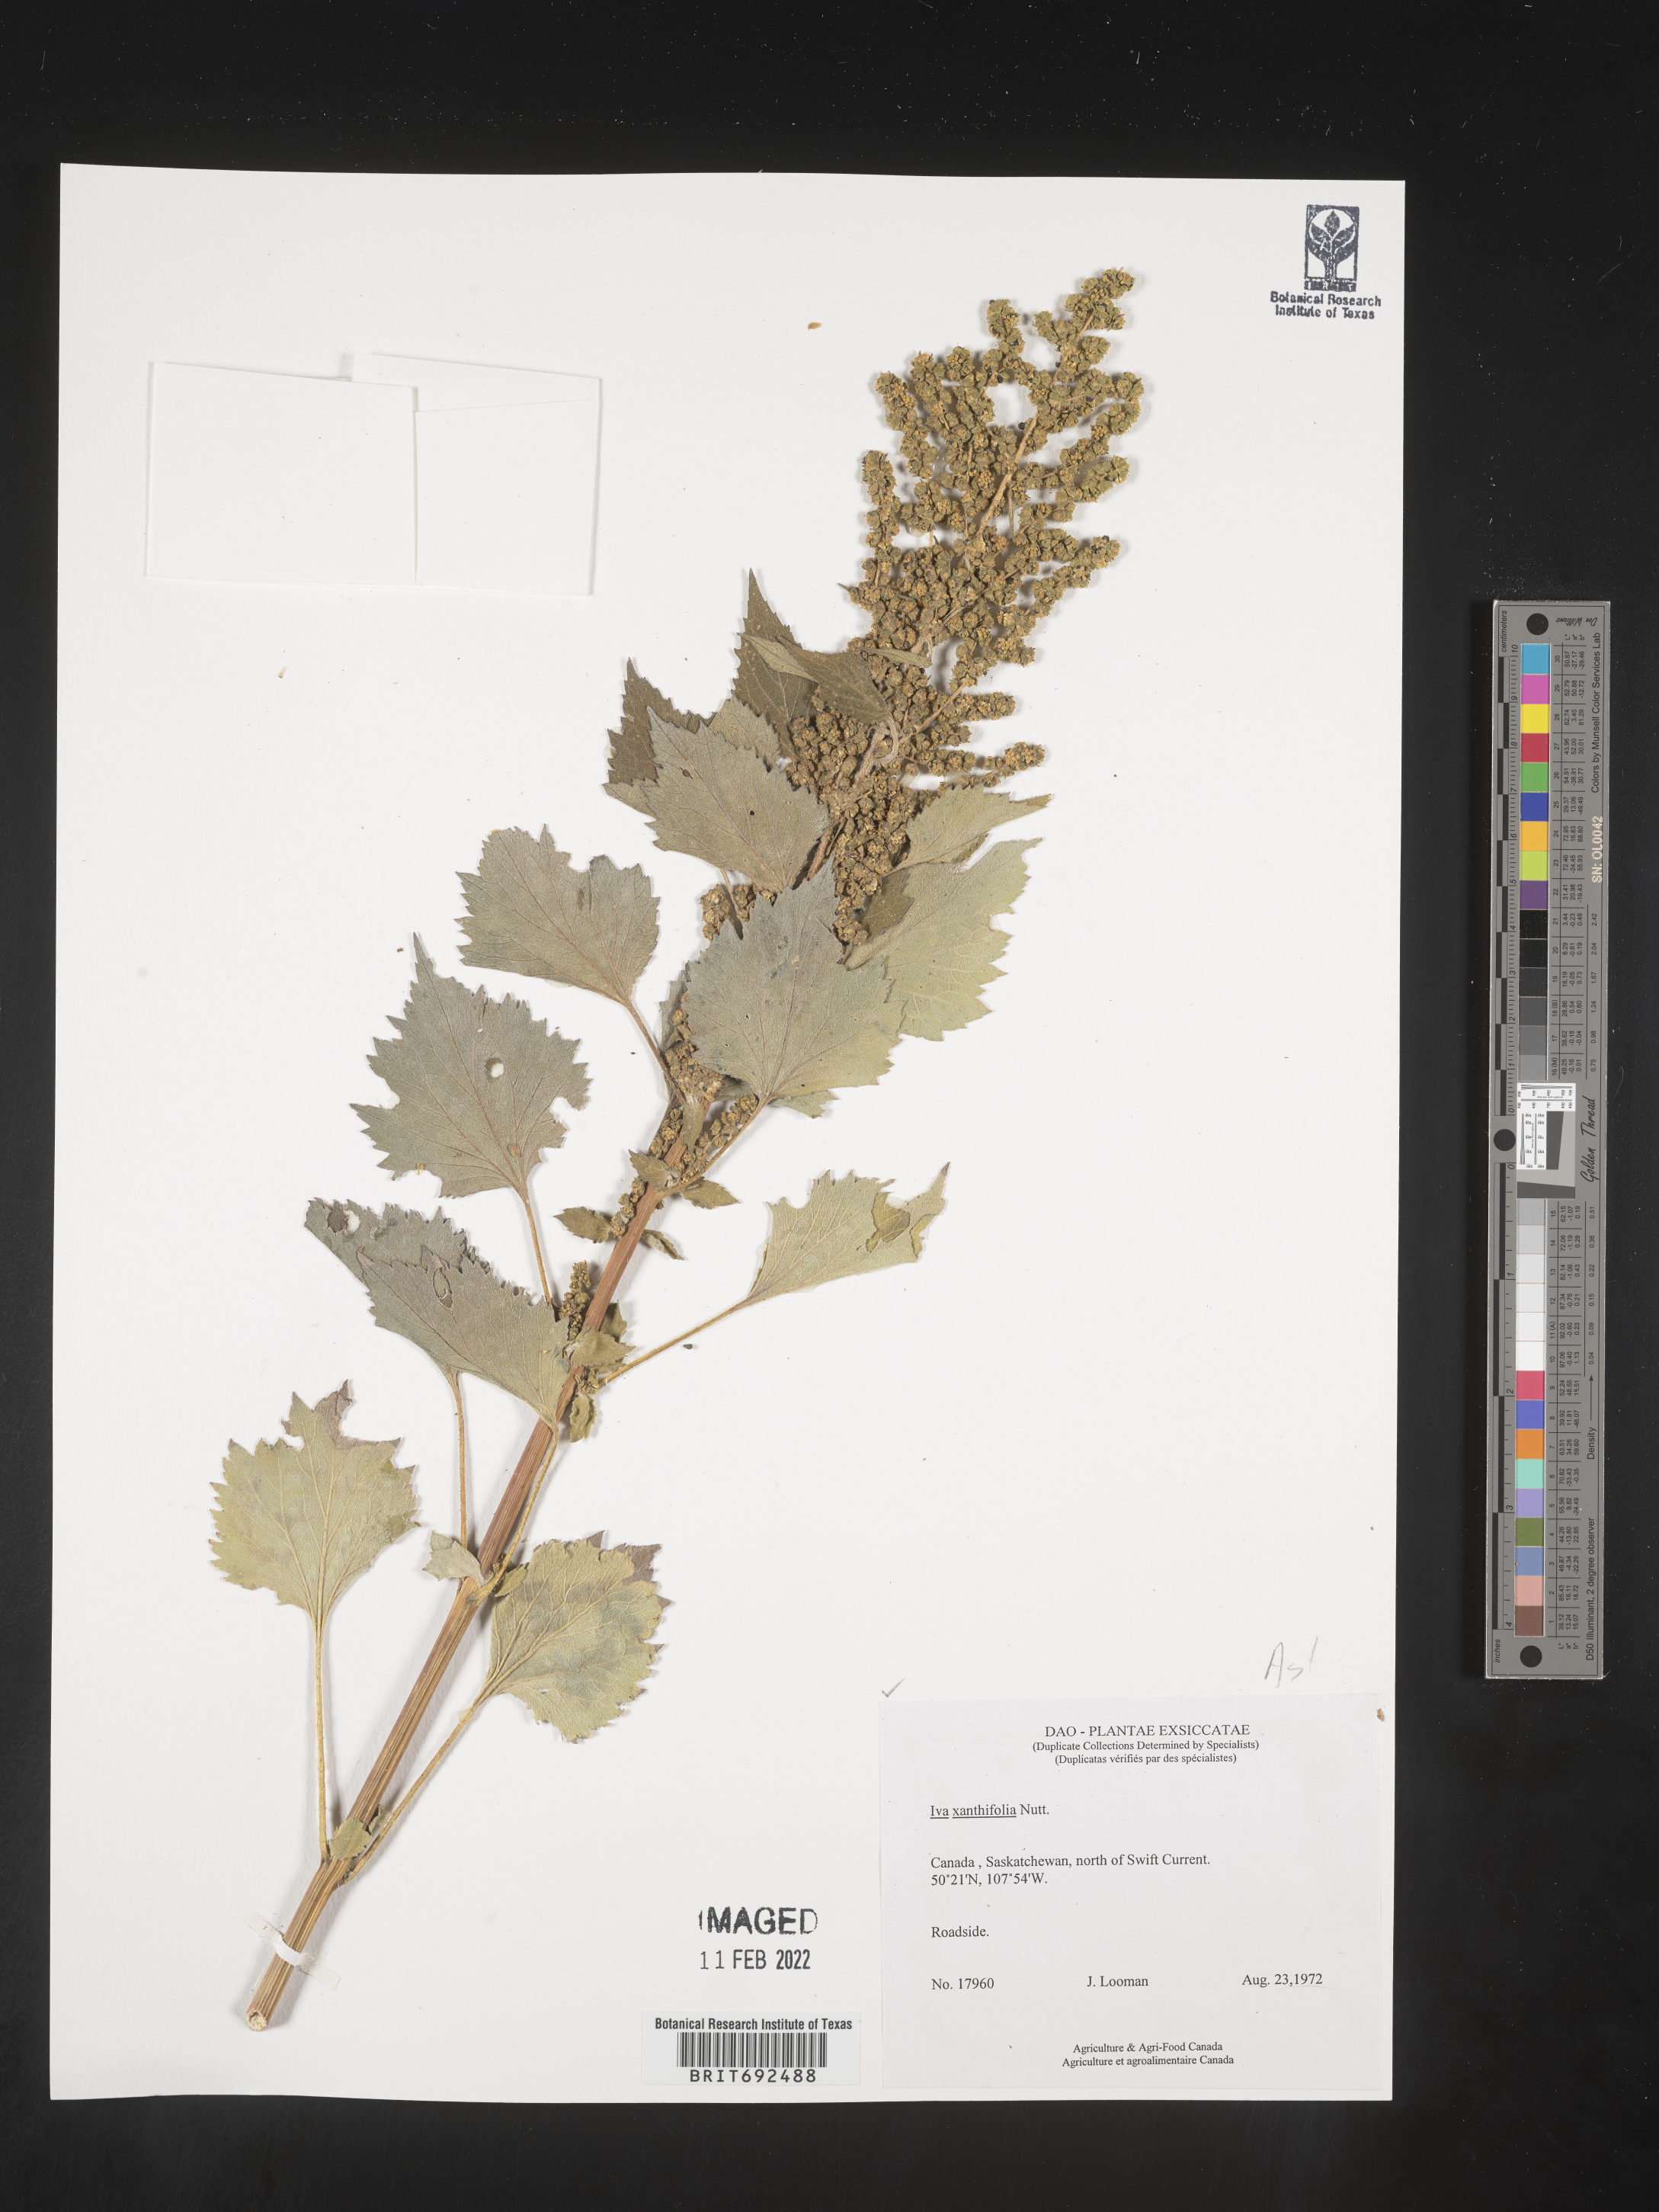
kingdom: Plantae
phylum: Tracheophyta
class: Magnoliopsida
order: Asterales
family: Asteraceae
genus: Cyclachaena
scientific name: Cyclachaena
